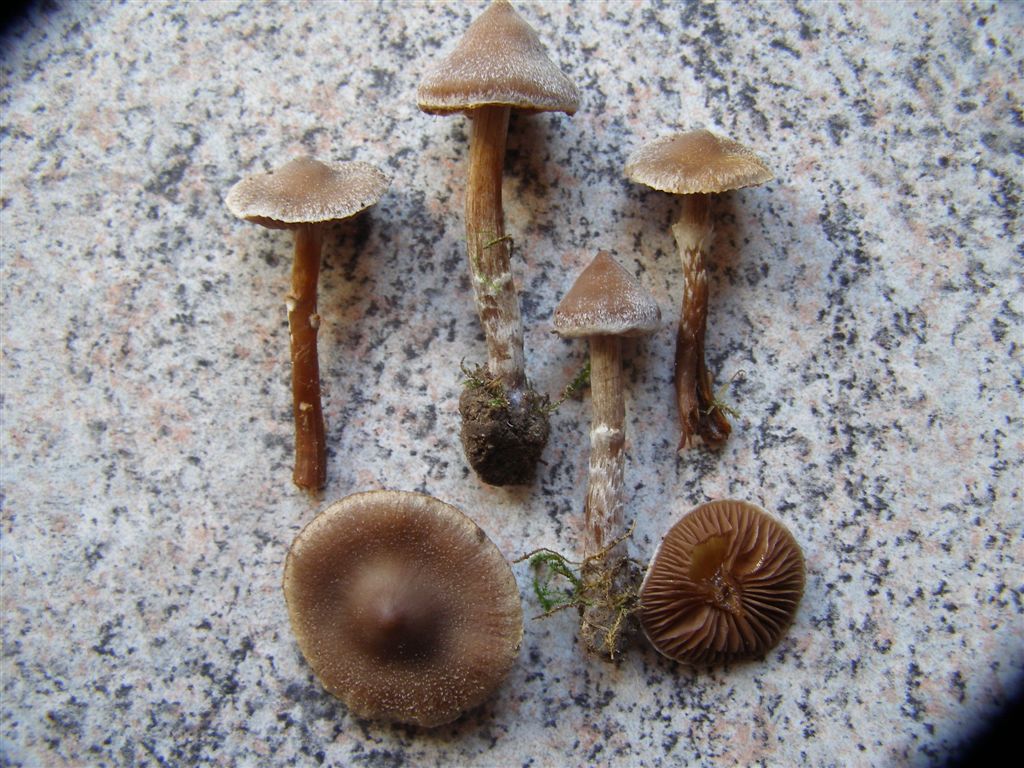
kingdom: Fungi
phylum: Basidiomycota
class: Agaricomycetes
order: Agaricales
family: Cortinariaceae
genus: Cortinarius
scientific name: Cortinarius
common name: pelargonie-slørhat
